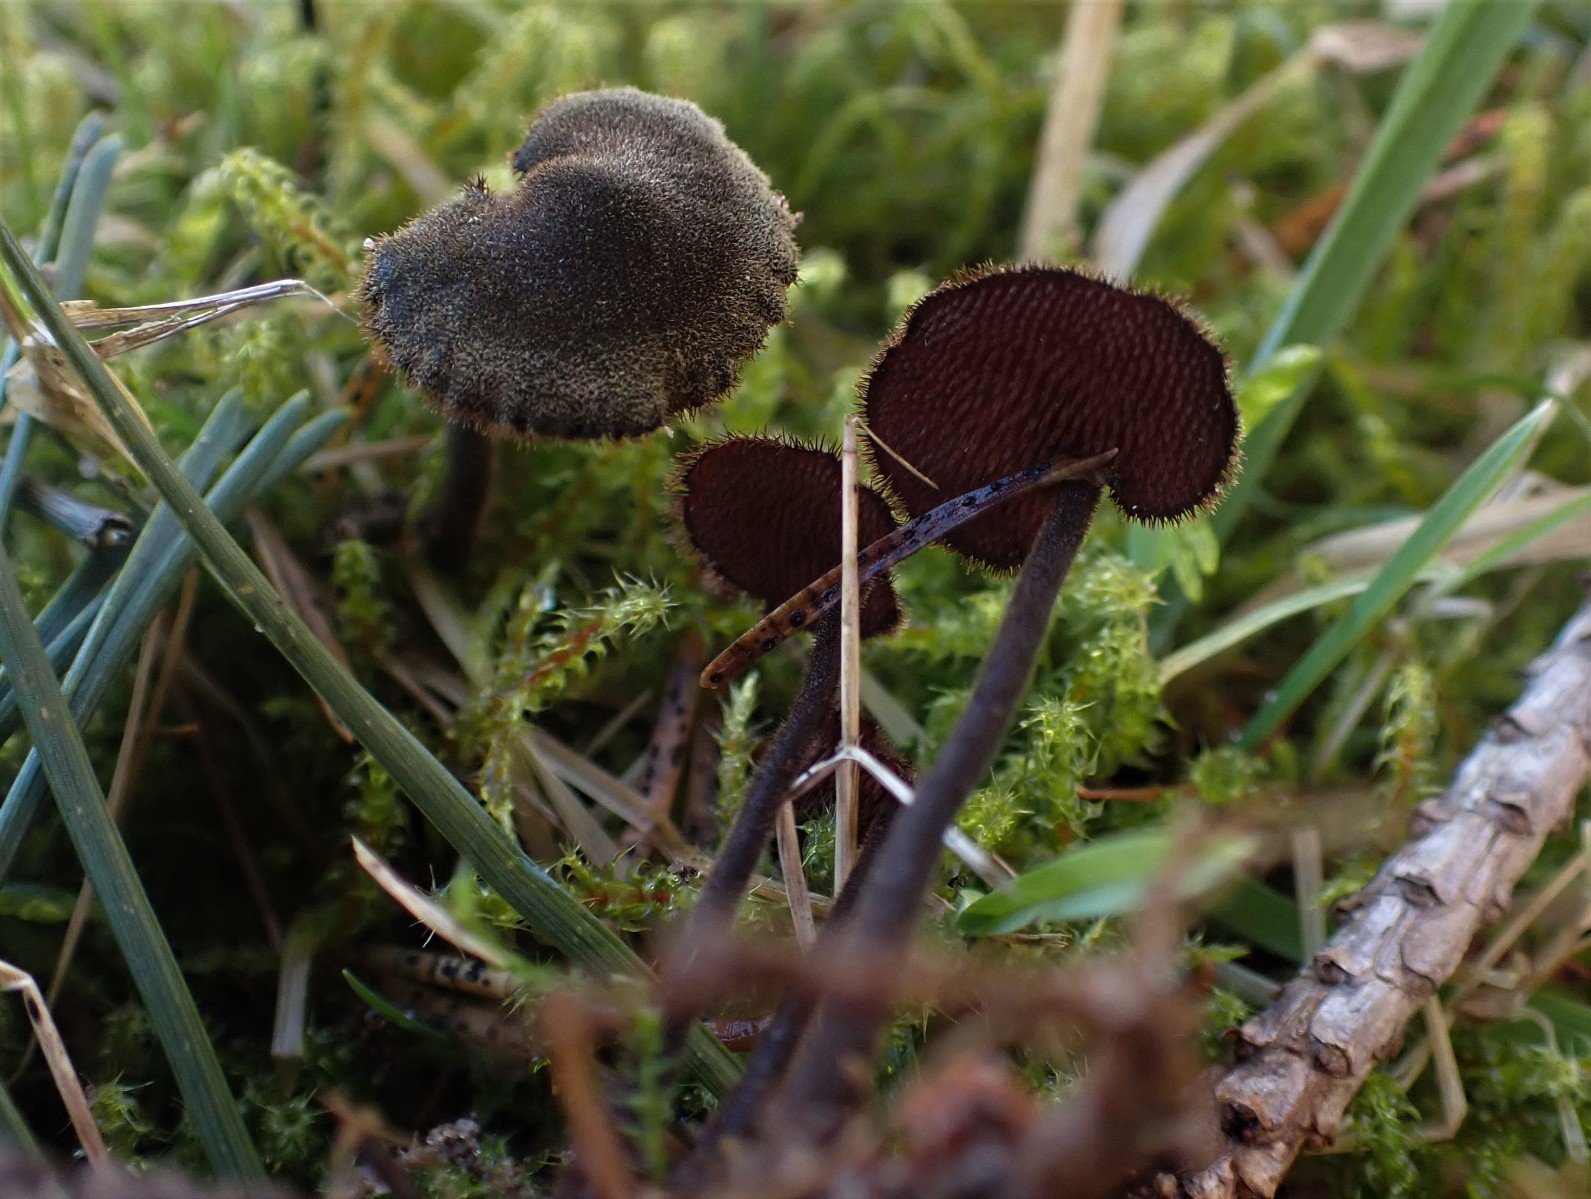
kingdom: Fungi
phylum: Basidiomycota
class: Agaricomycetes
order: Russulales
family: Auriscalpiaceae
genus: Auriscalpium
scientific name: Auriscalpium vulgare
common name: koglepigsvamp
